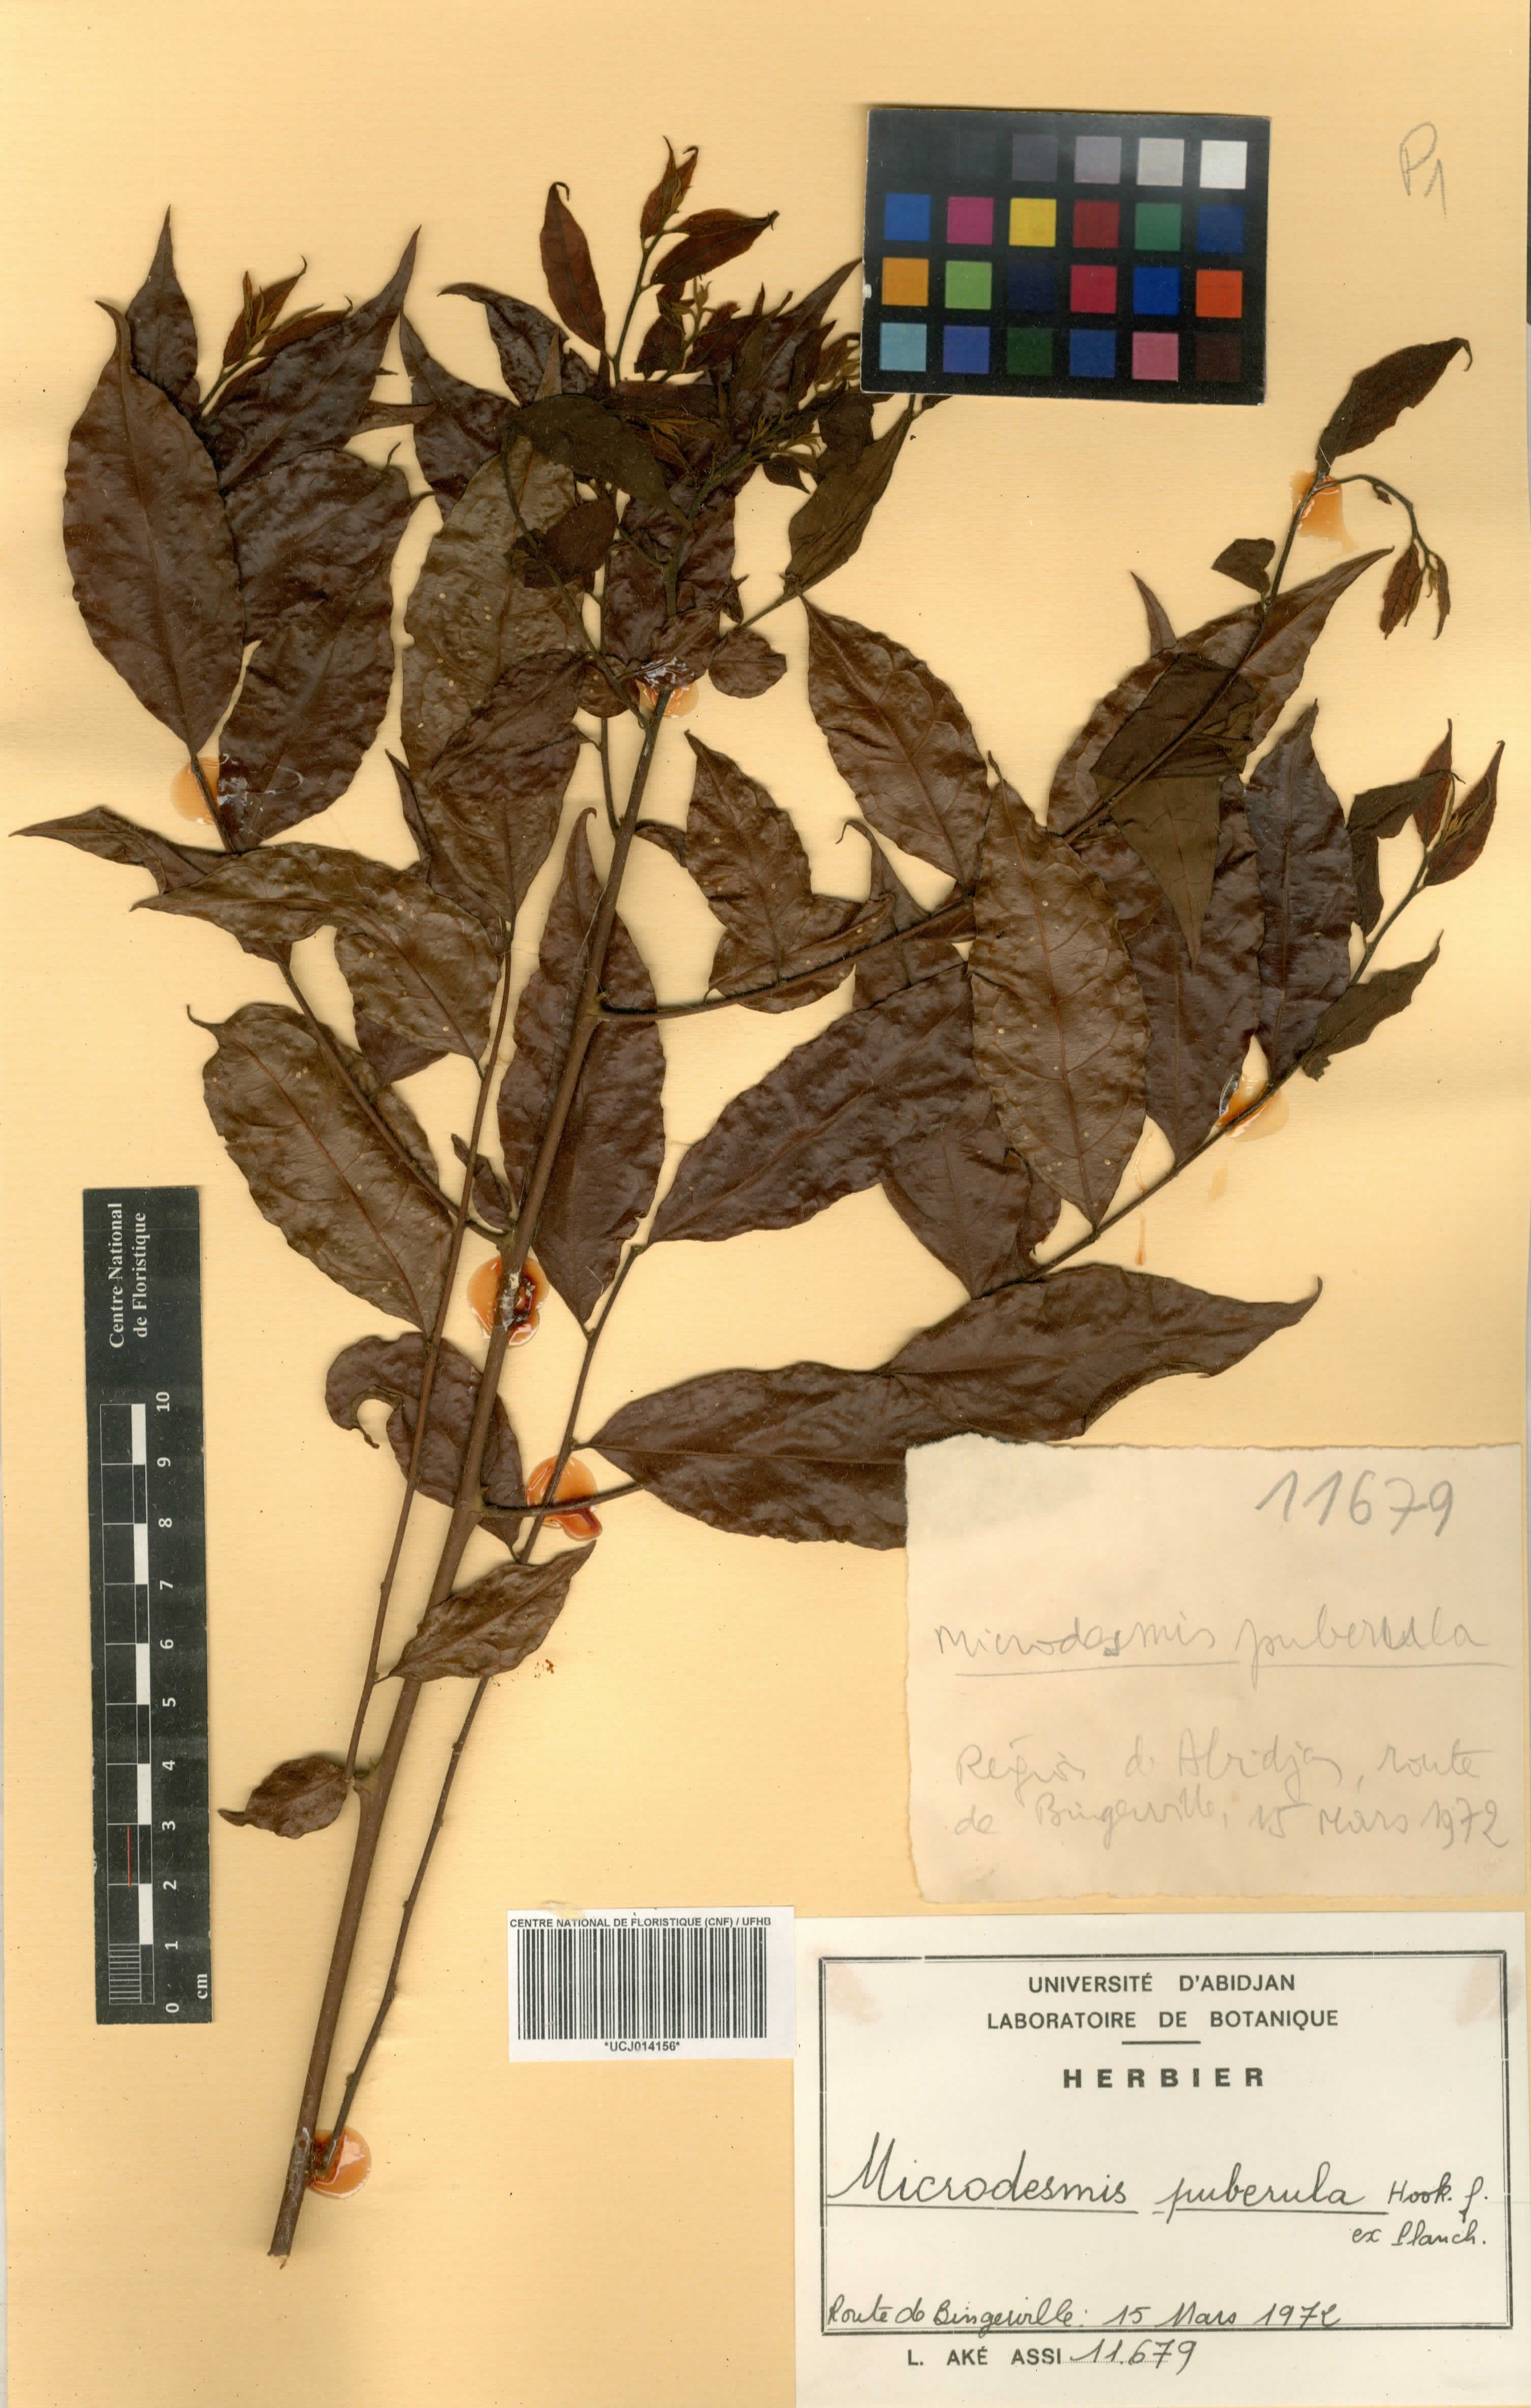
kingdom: Plantae
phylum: Tracheophyta
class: Magnoliopsida
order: Malpighiales
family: Pandaceae
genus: Microdesmis
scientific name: Microdesmis puberula
